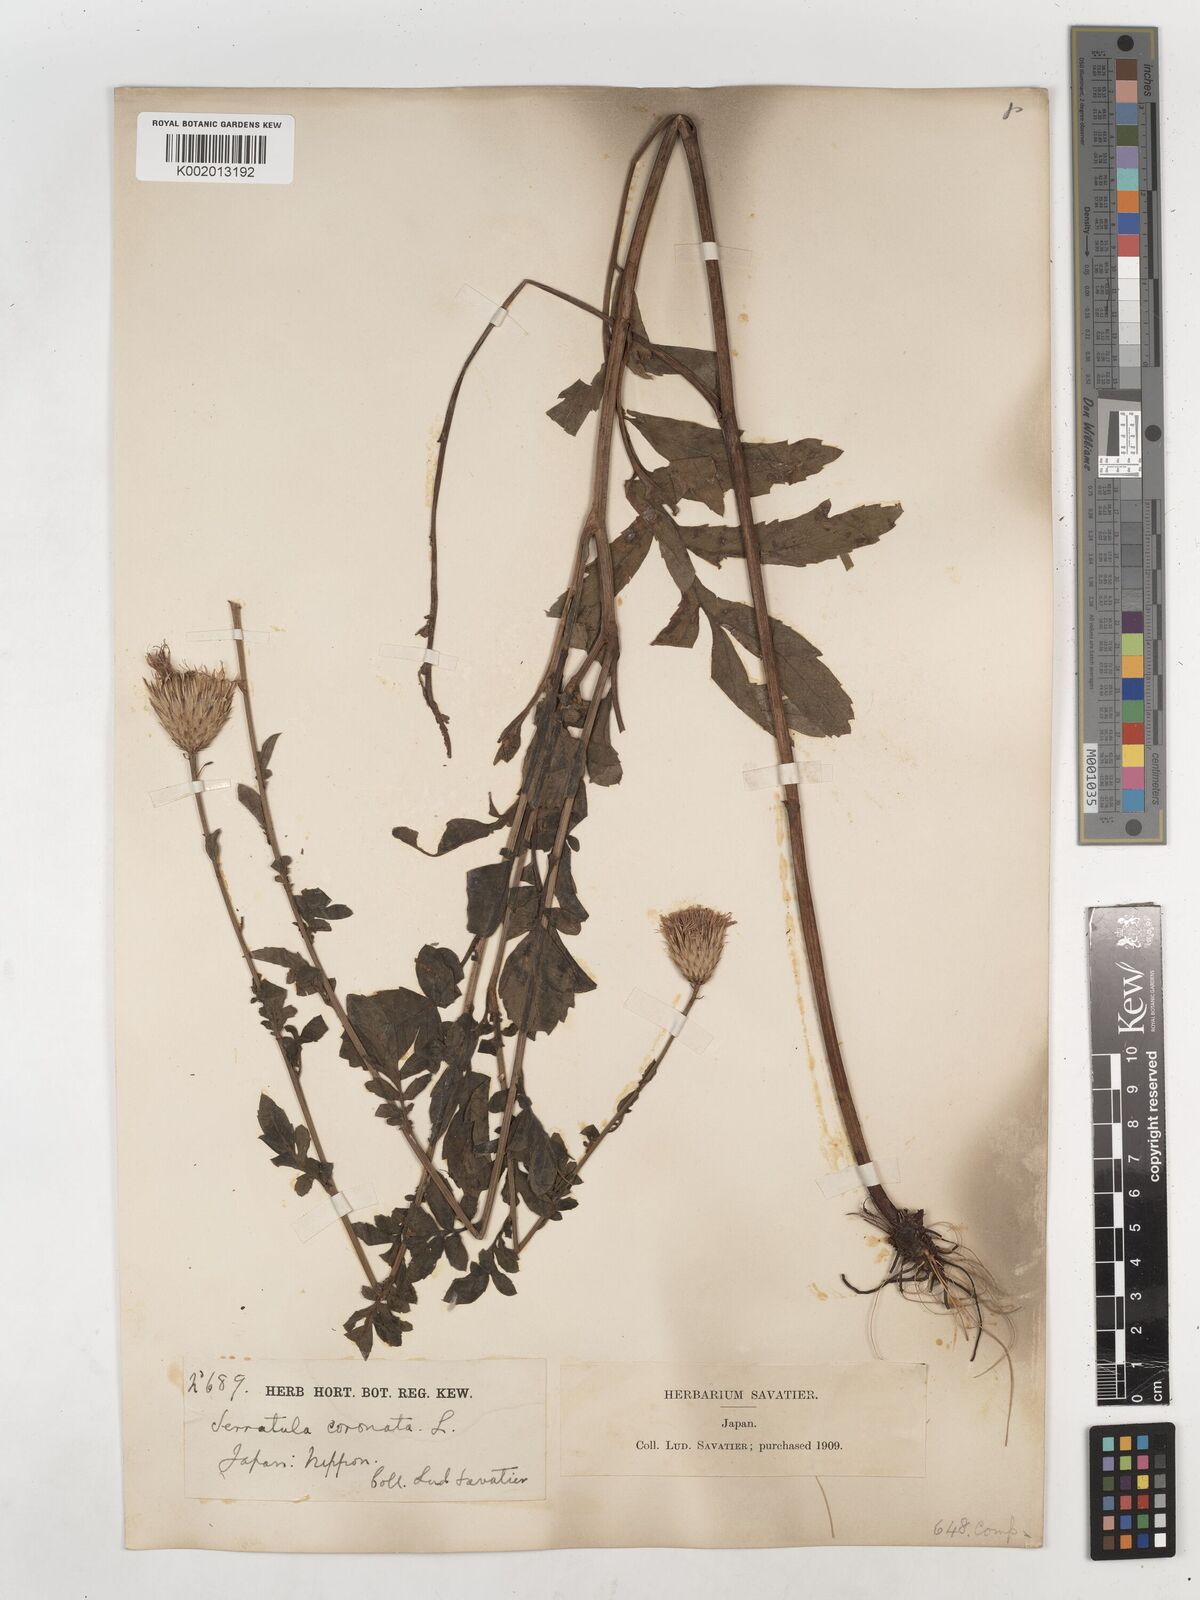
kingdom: Plantae
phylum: Tracheophyta
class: Magnoliopsida
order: Asterales
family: Asteraceae
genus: Serratula
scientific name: Serratula coronata
